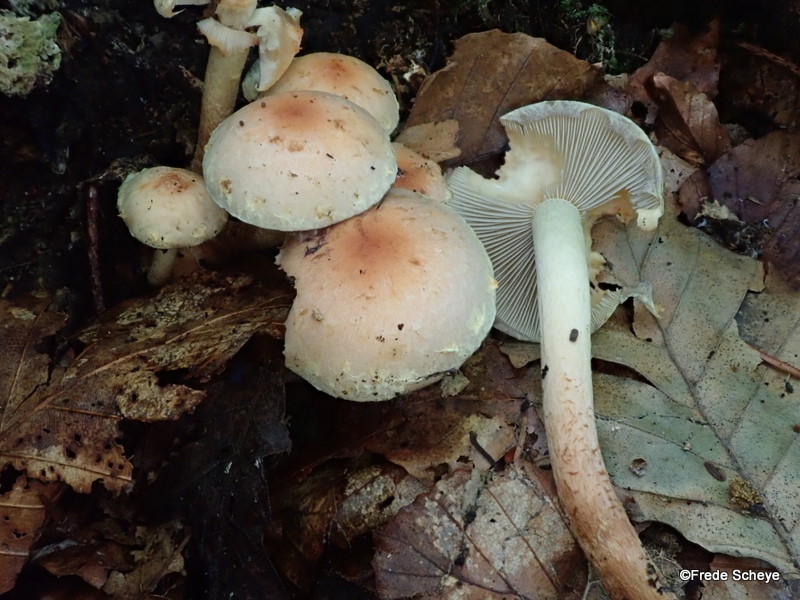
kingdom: Fungi
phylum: Basidiomycota
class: Agaricomycetes
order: Agaricales
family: Strophariaceae
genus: Hypholoma
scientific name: Hypholoma lateritium
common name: teglrød svovlhat
